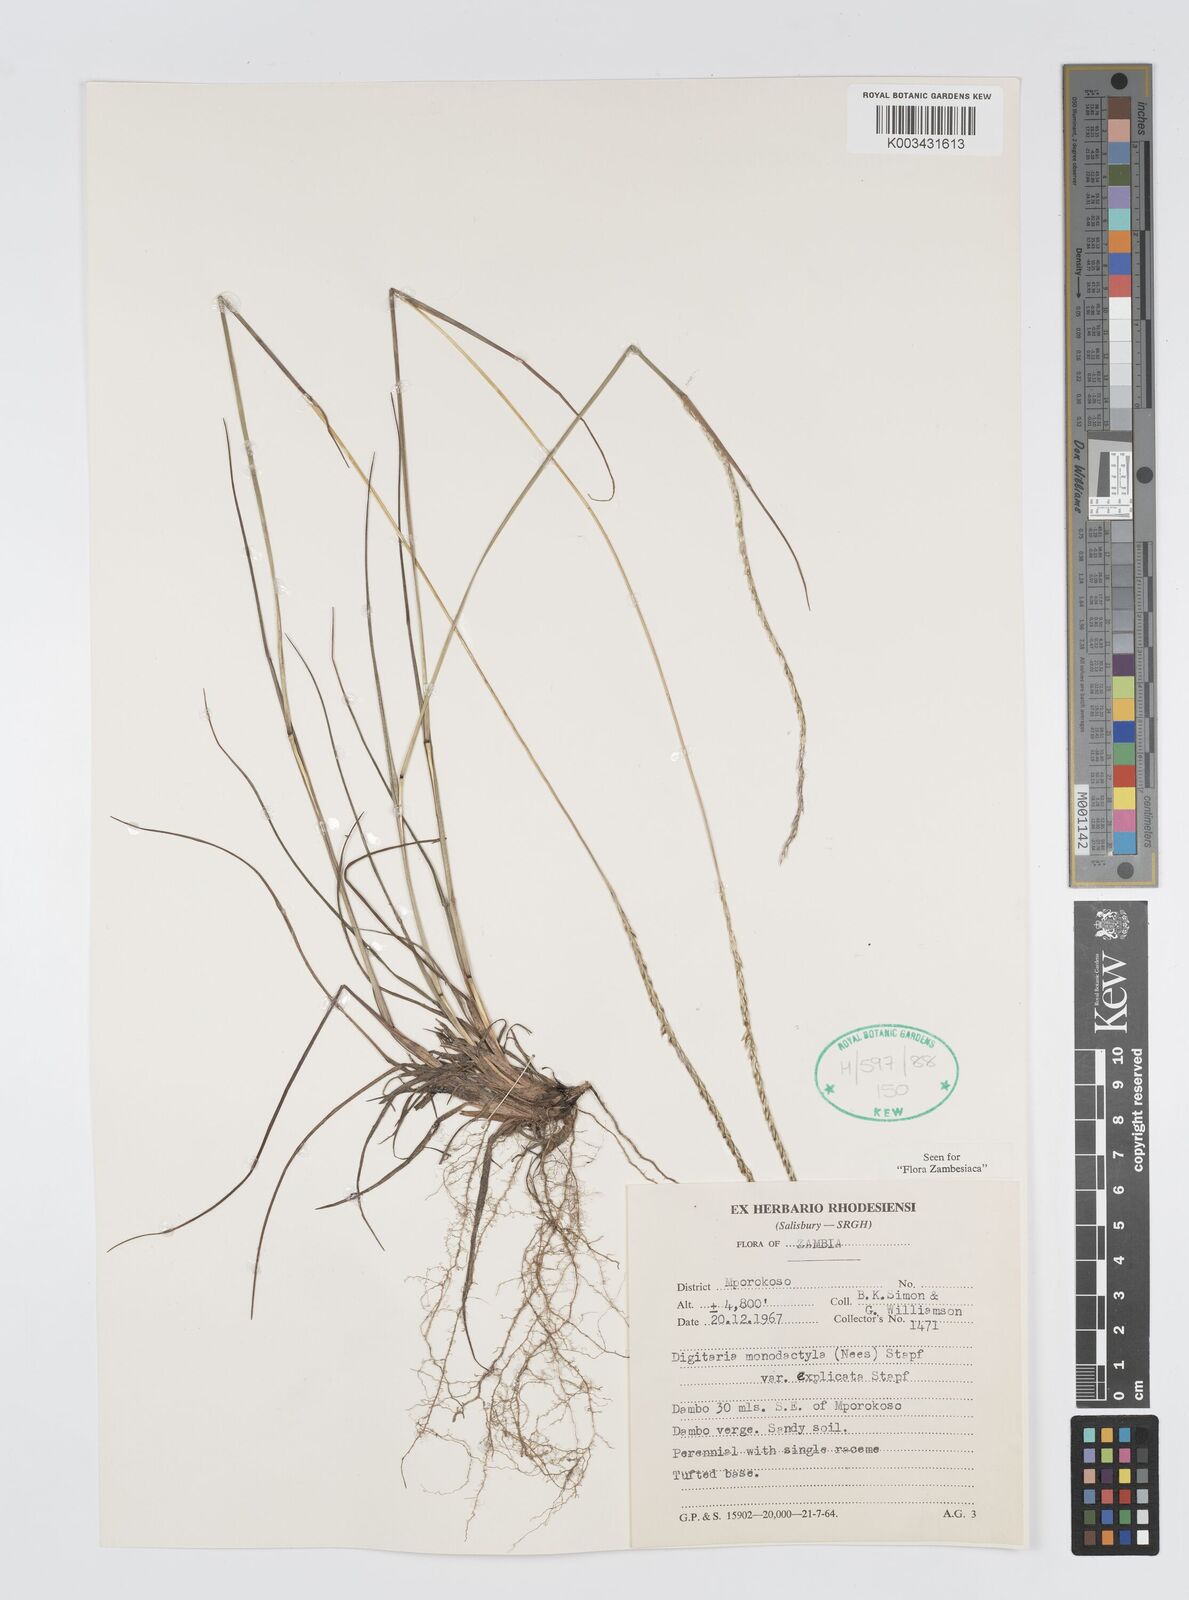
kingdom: Plantae
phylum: Tracheophyta
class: Liliopsida
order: Poales
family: Poaceae
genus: Digitaria
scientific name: Digitaria monodactyla
